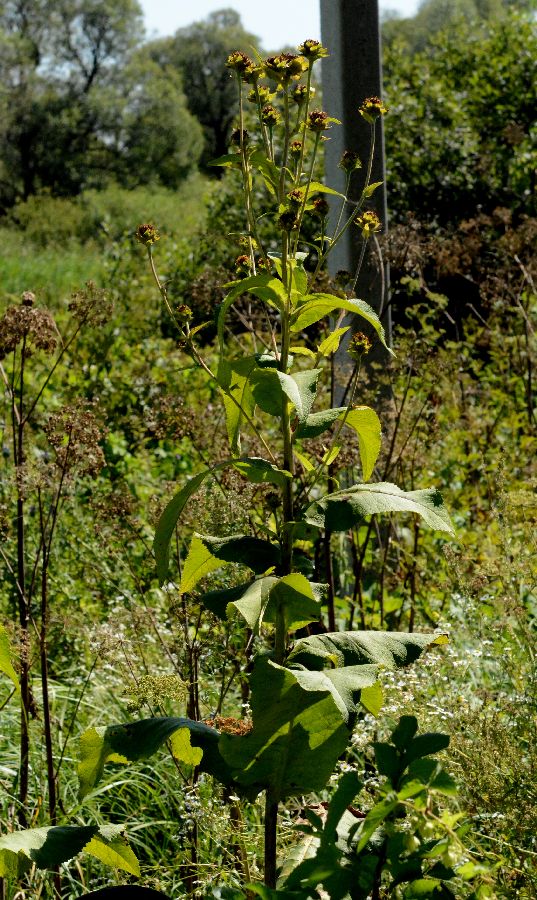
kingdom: Plantae
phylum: Tracheophyta
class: Magnoliopsida
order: Asterales
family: Asteraceae
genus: Inula
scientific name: Inula helenium
